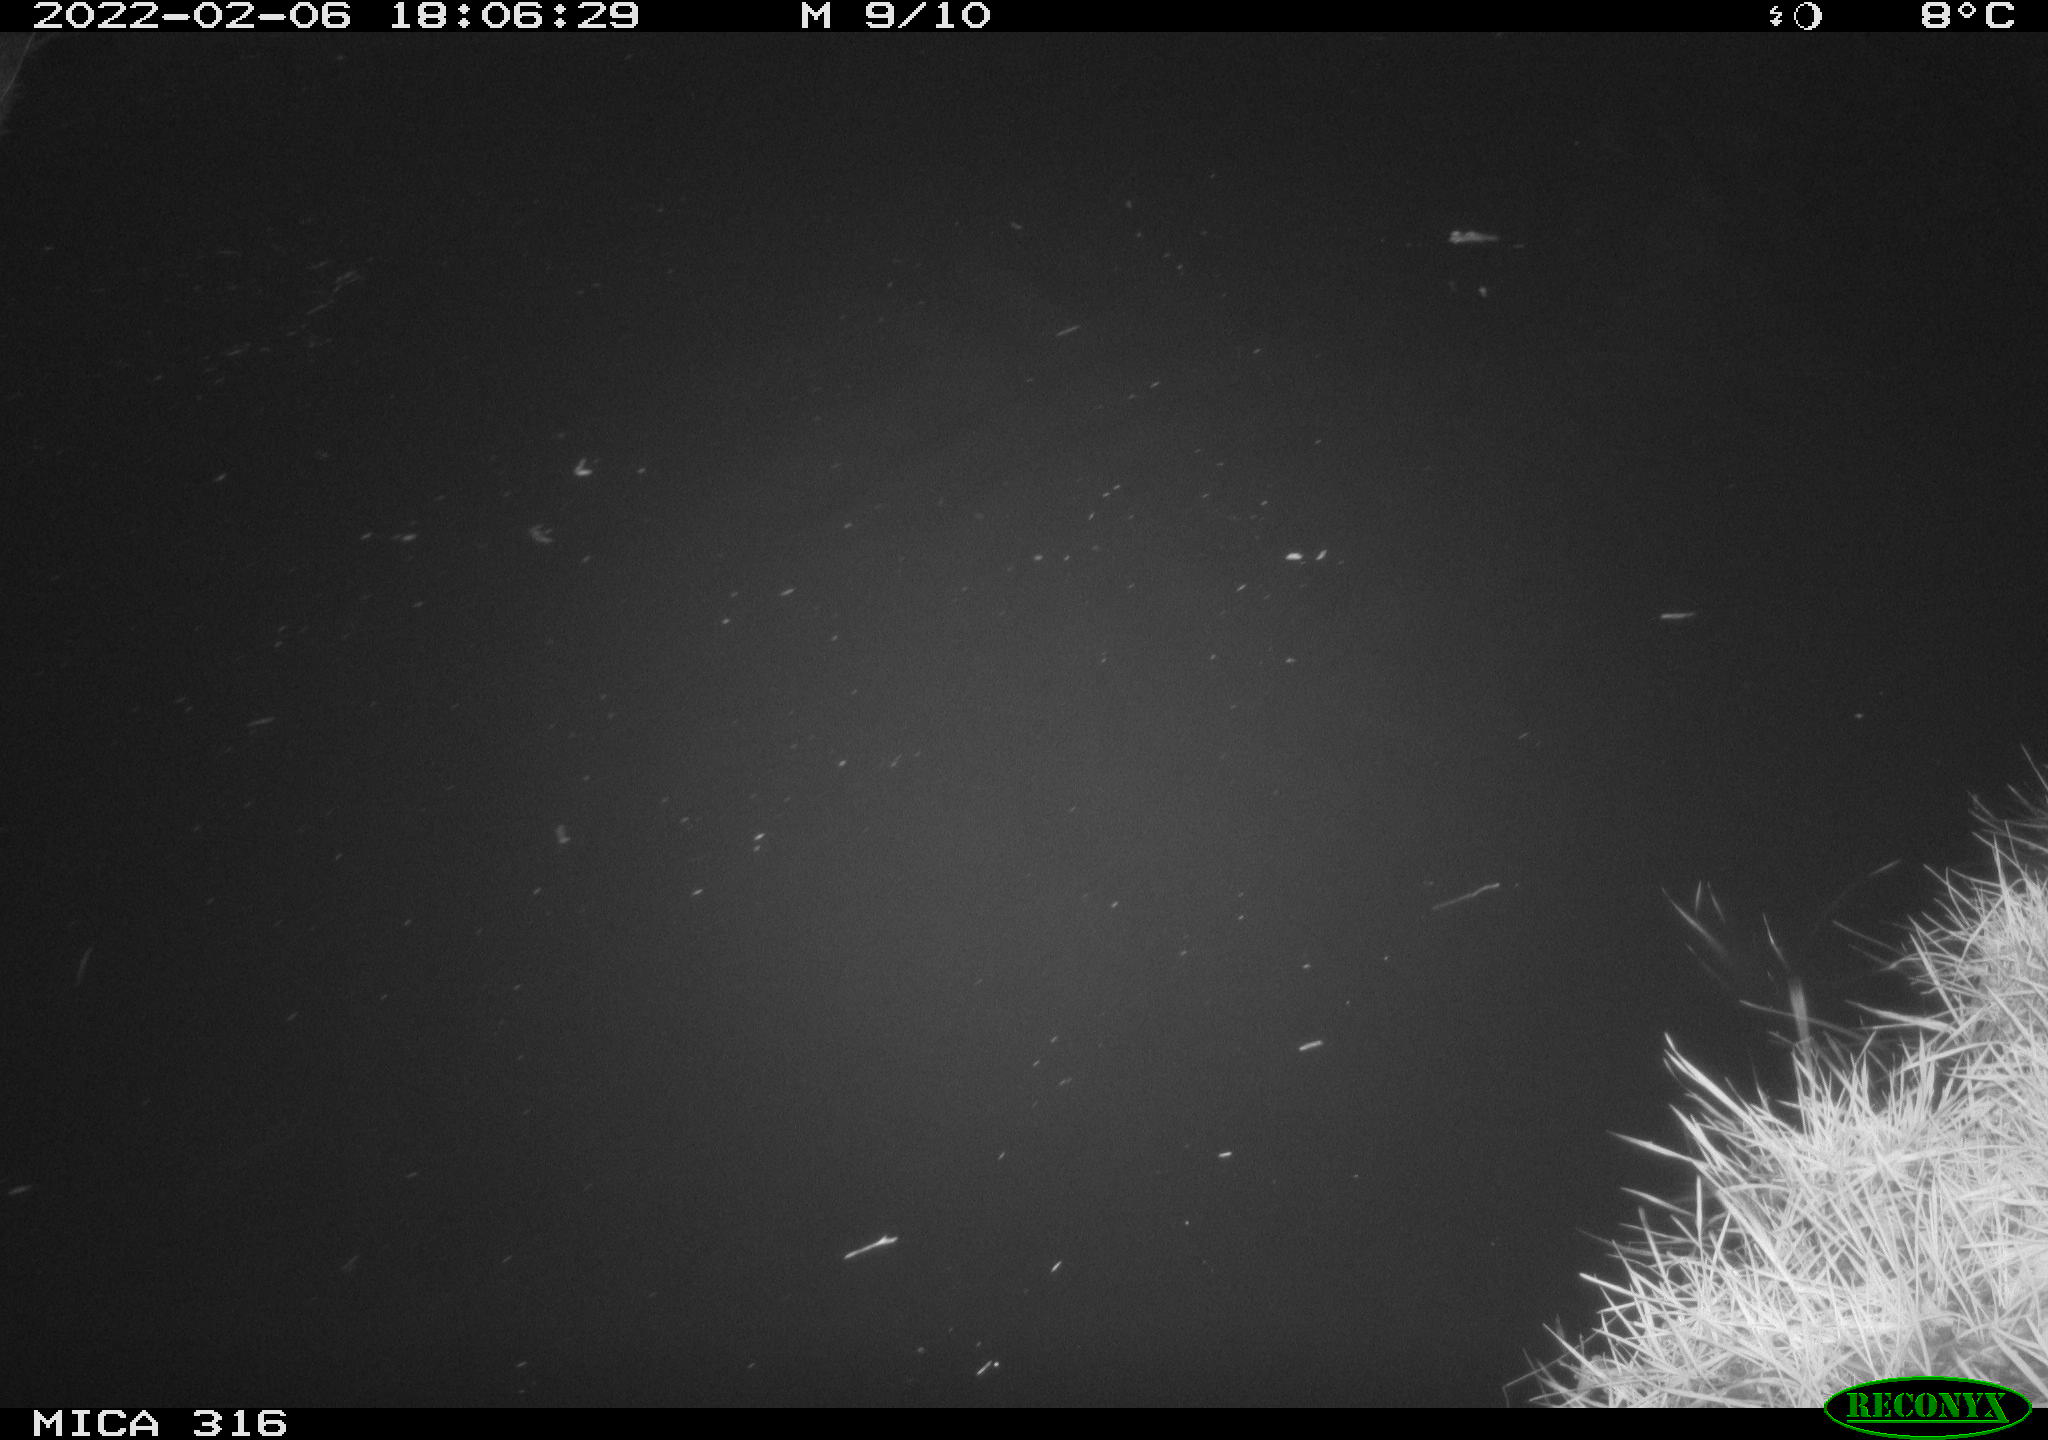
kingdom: Animalia
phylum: Chordata
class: Aves
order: Gruiformes
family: Rallidae
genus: Gallinula
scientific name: Gallinula chloropus
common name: Common moorhen
